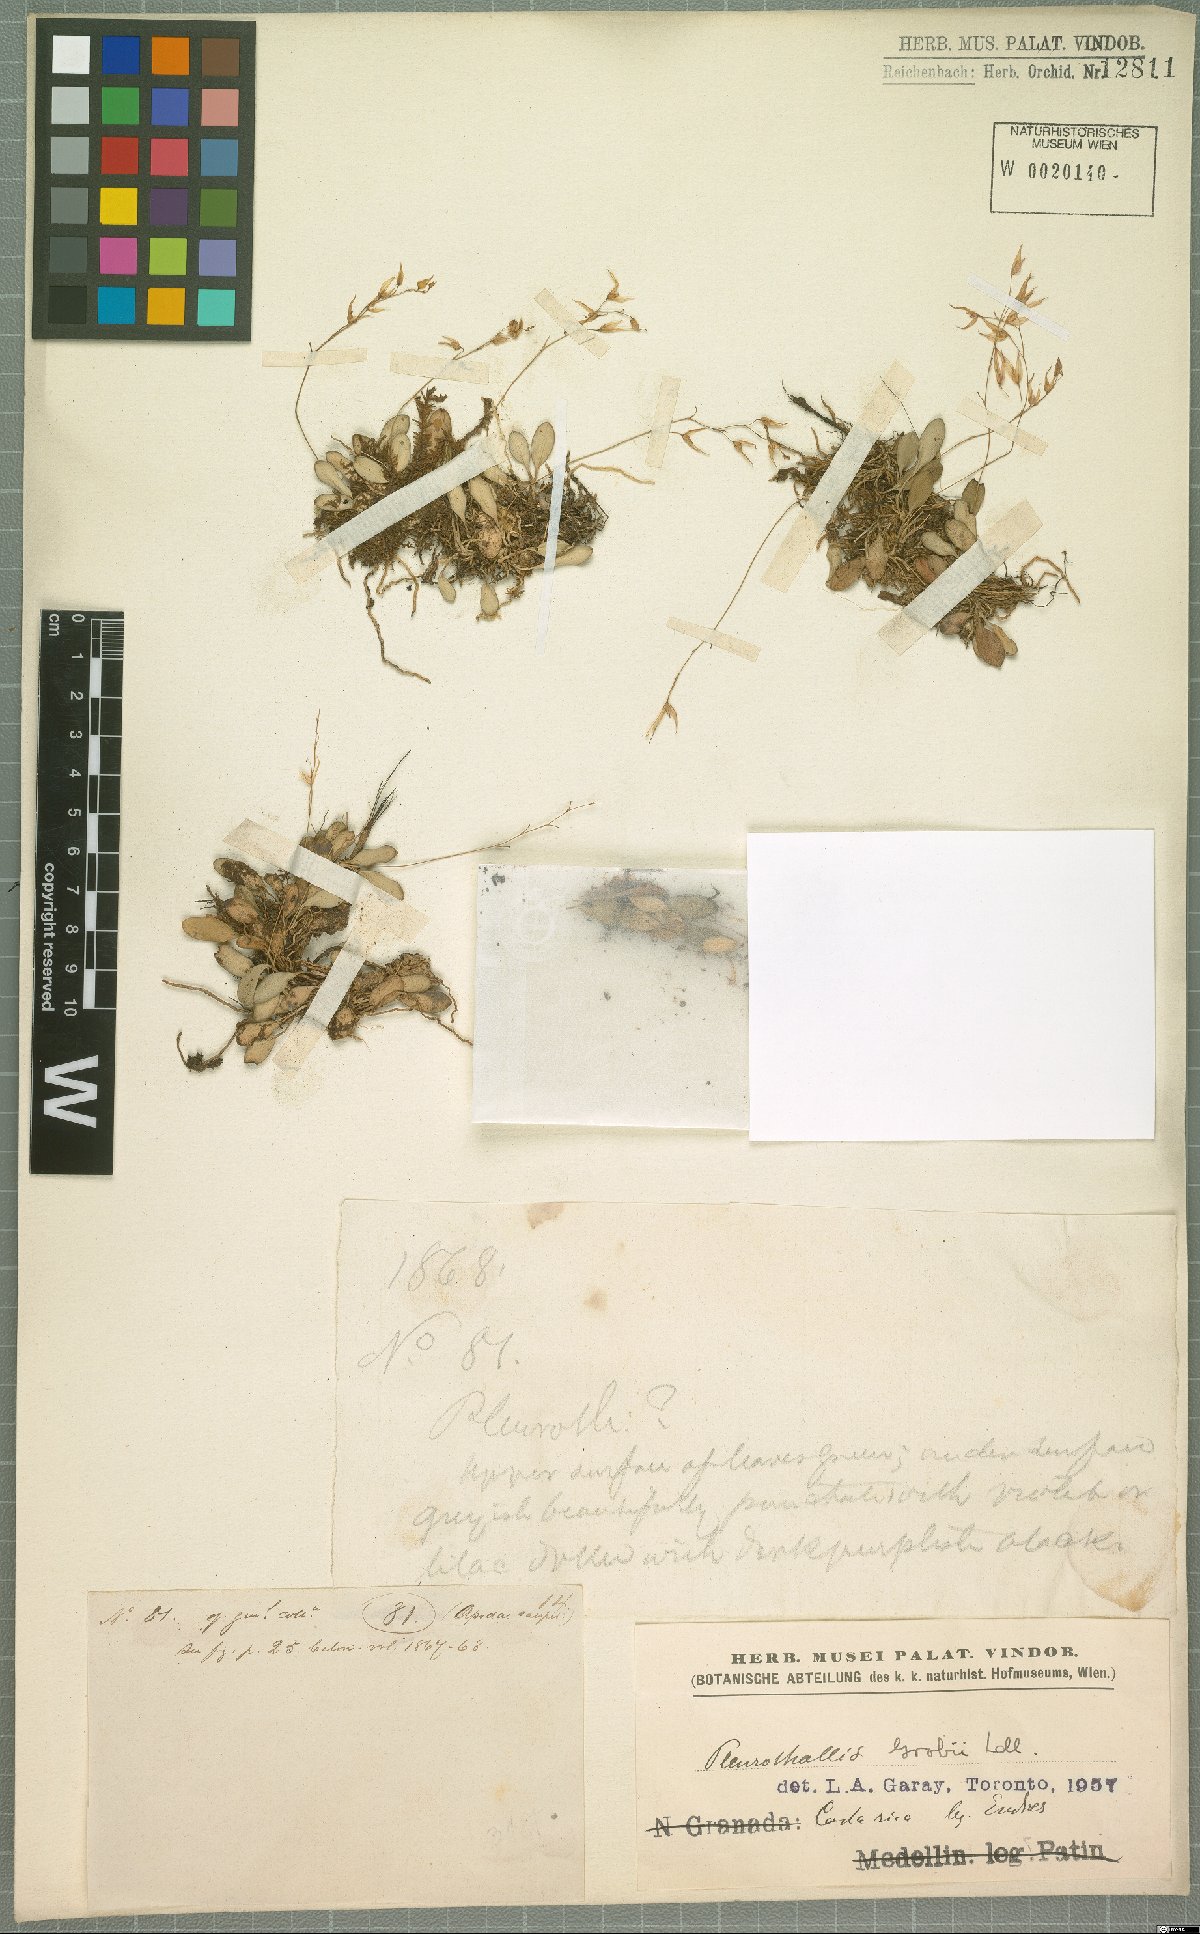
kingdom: Plantae
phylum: Tracheophyta
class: Liliopsida
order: Asparagales
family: Orchidaceae
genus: Specklinia
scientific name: Specklinia
